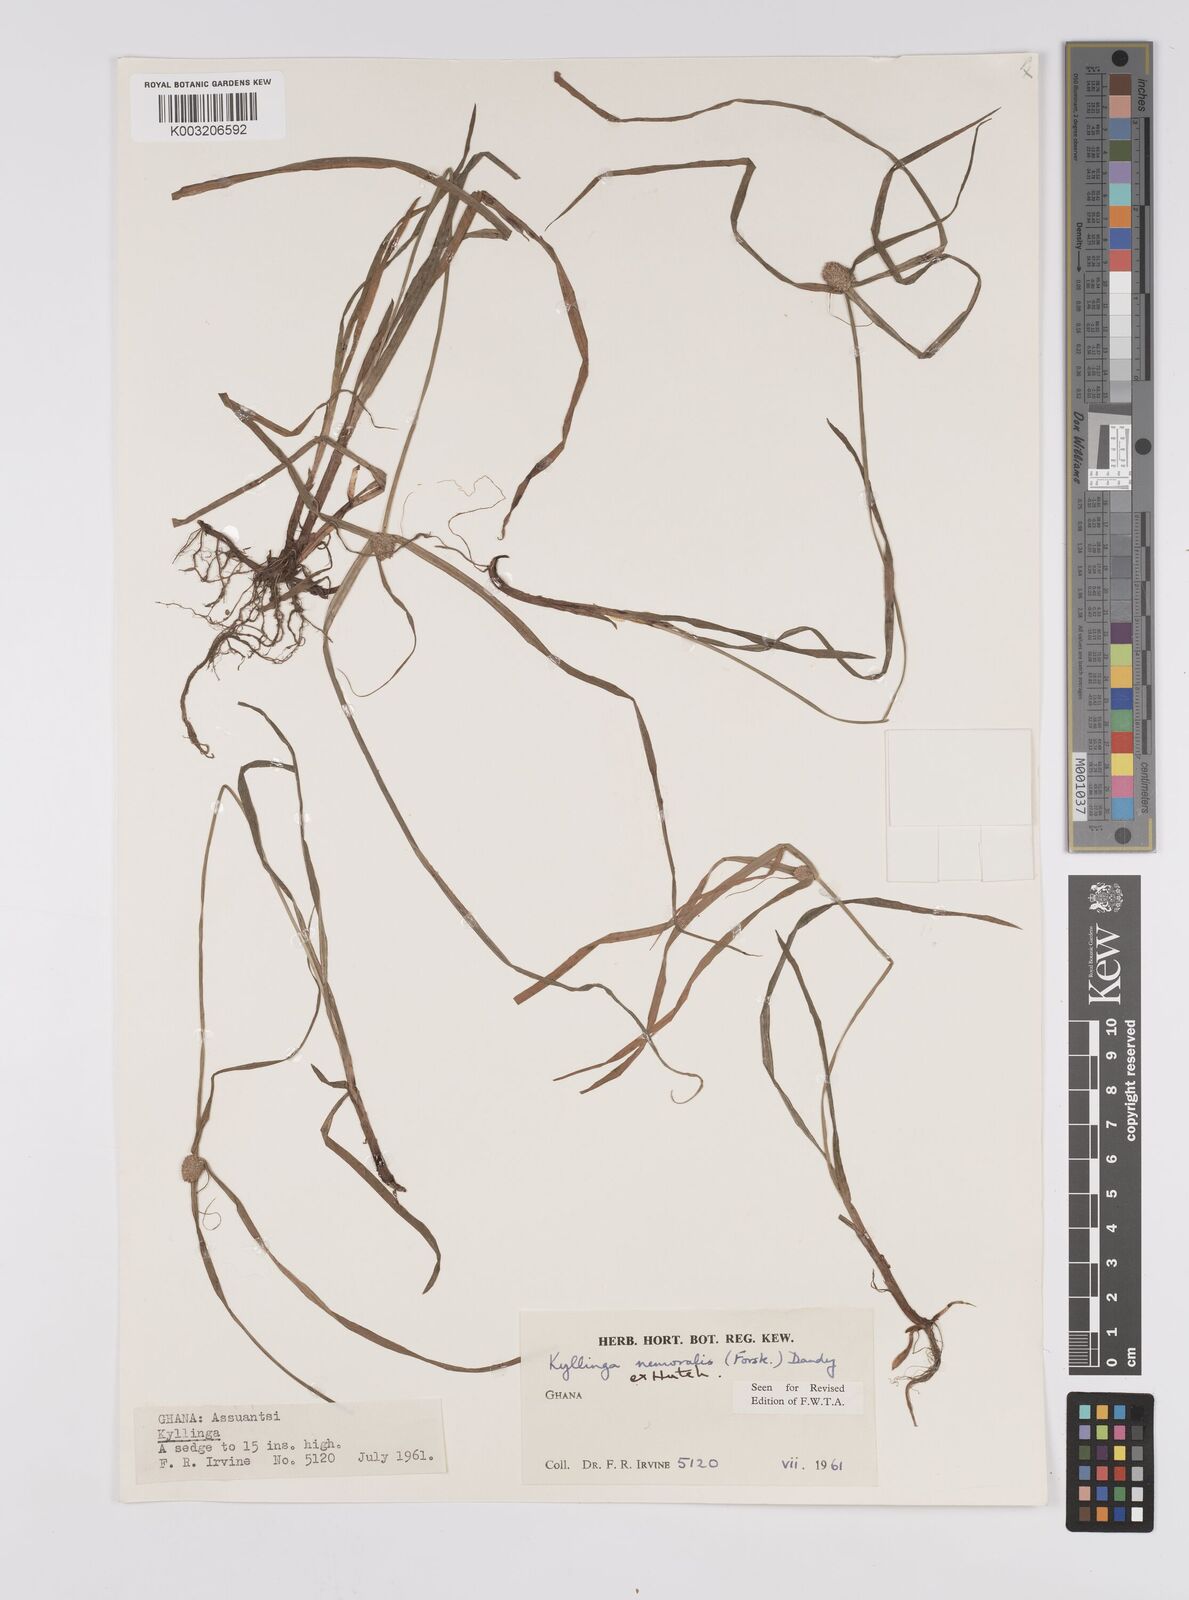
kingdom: Plantae
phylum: Tracheophyta
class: Liliopsida
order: Poales
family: Cyperaceae
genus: Cyperus
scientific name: Cyperus nemoralis
